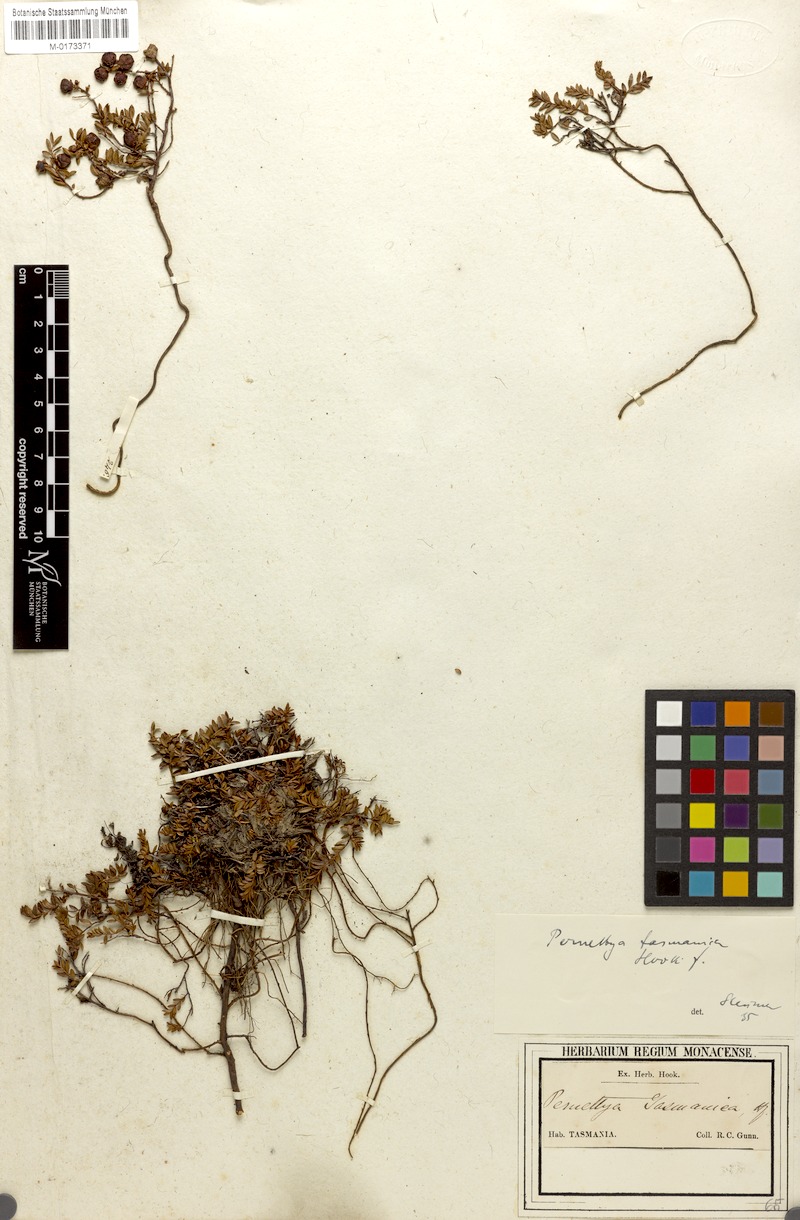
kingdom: Plantae
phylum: Tracheophyta
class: Magnoliopsida
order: Ericales
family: Ericaceae
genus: Gaultheria
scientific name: Gaultheria tasmanica
